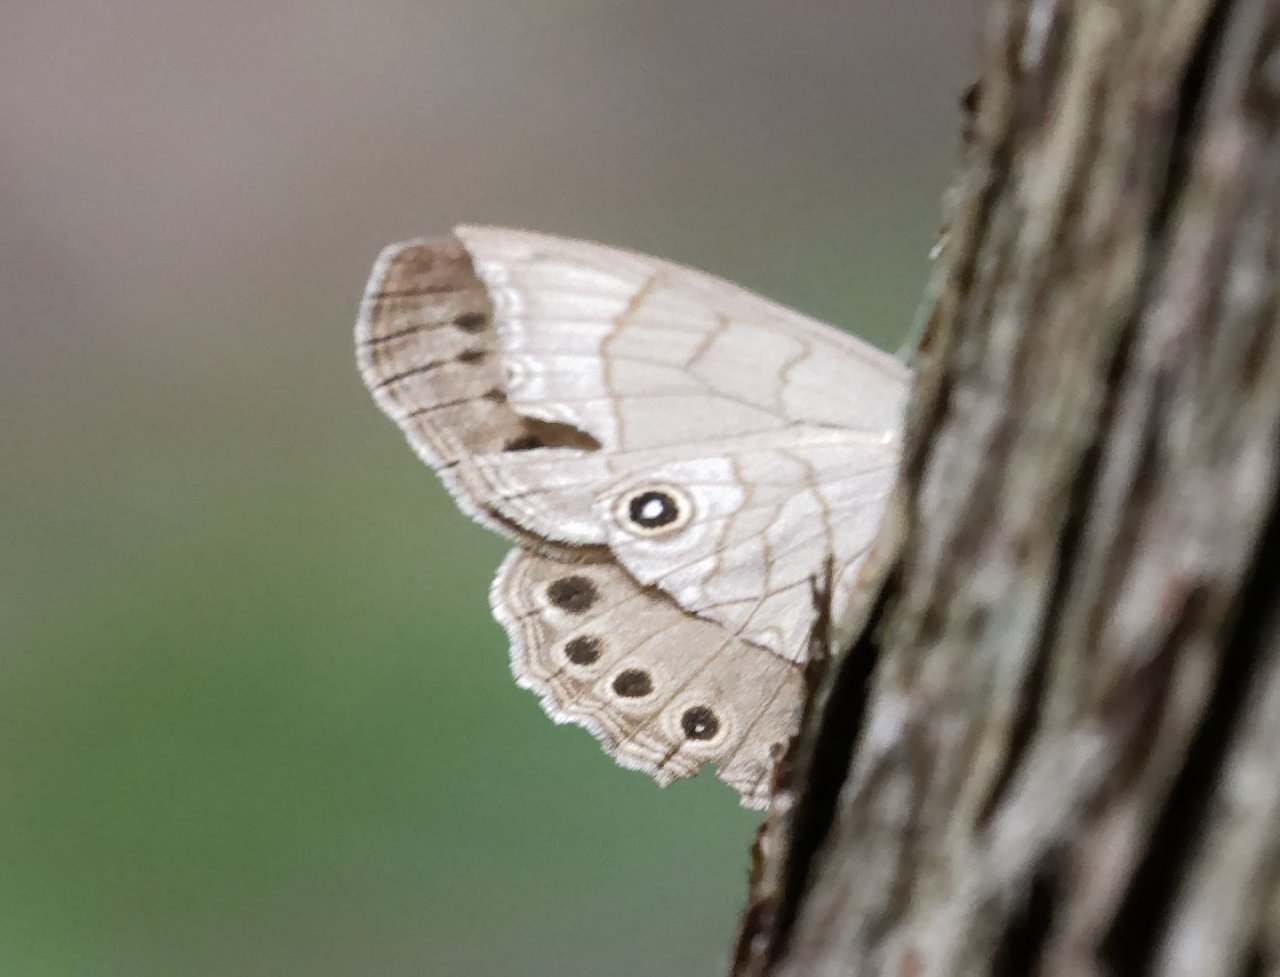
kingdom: Animalia
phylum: Arthropoda
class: Insecta
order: Lepidoptera
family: Nymphalidae
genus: Lethe
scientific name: Lethe eurydice
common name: Appalachian Eyed Brown
